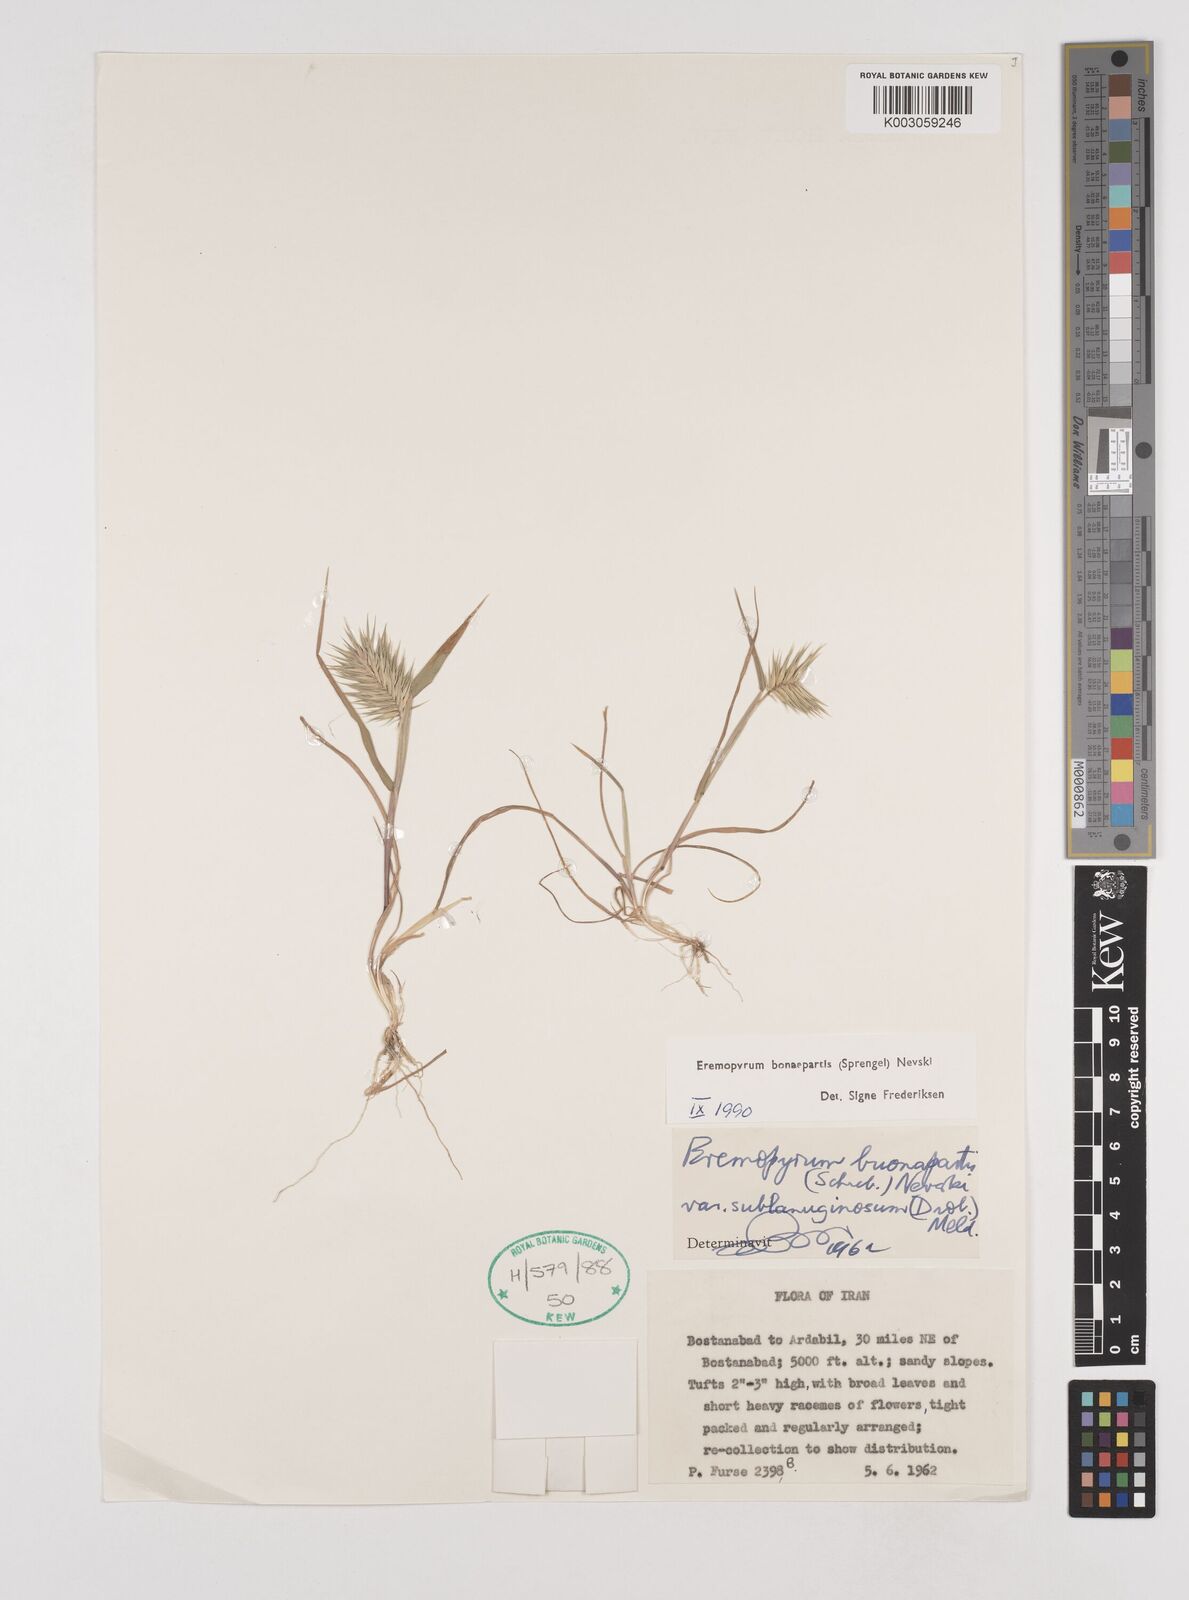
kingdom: Plantae
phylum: Tracheophyta
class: Liliopsida
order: Poales
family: Poaceae
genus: Eremopyrum
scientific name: Eremopyrum bonaepartis
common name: Tapertip false wheatgrass
